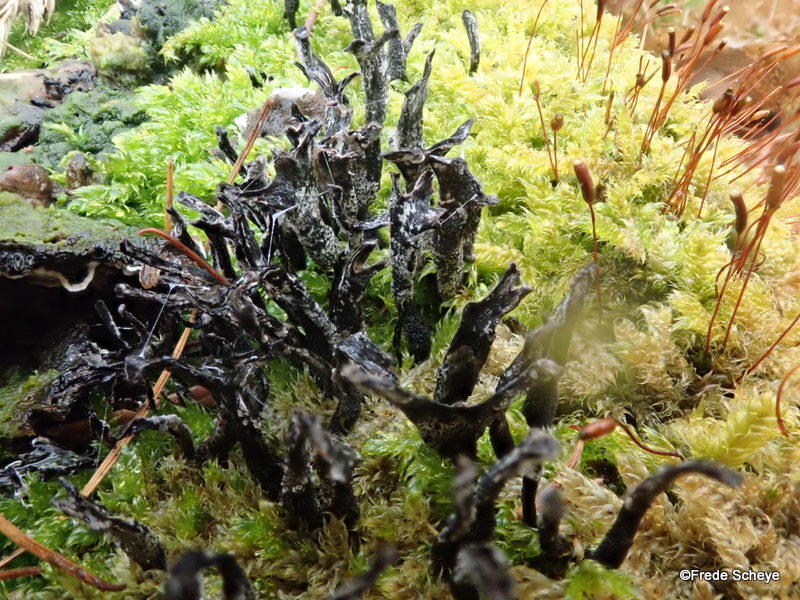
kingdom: Fungi
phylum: Ascomycota
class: Sordariomycetes
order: Xylariales
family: Xylariaceae
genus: Xylaria
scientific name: Xylaria hypoxylon
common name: grenet stødsvamp
